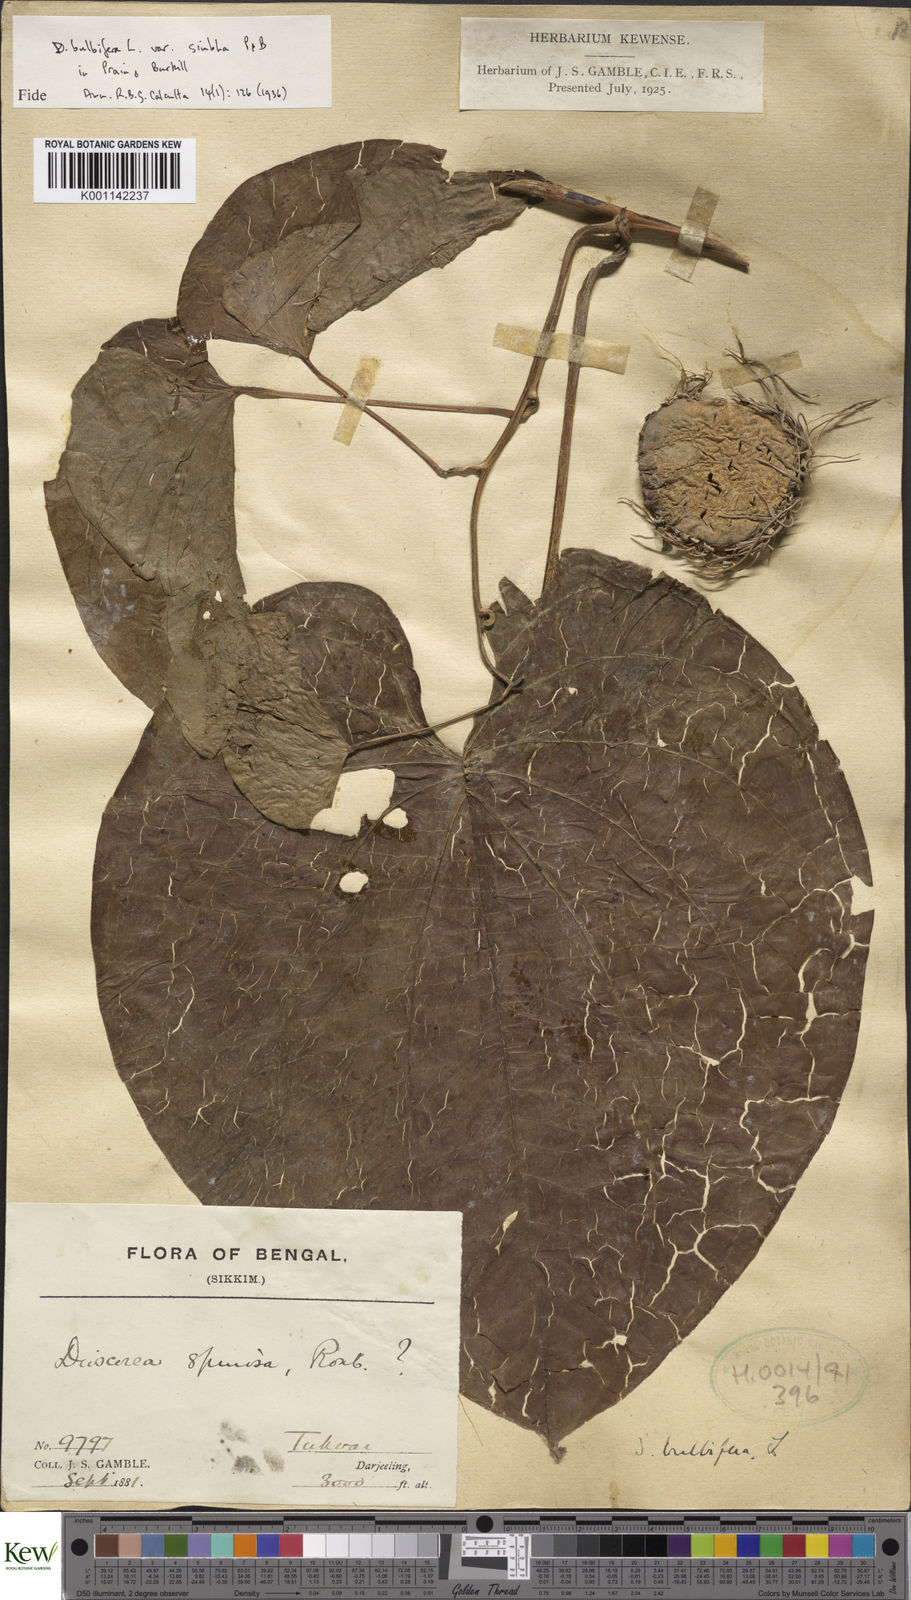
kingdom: Plantae
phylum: Tracheophyta
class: Liliopsida
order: Dioscoreales
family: Dioscoreaceae
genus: Dioscorea
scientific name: Dioscorea bulbifera
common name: Air yam
